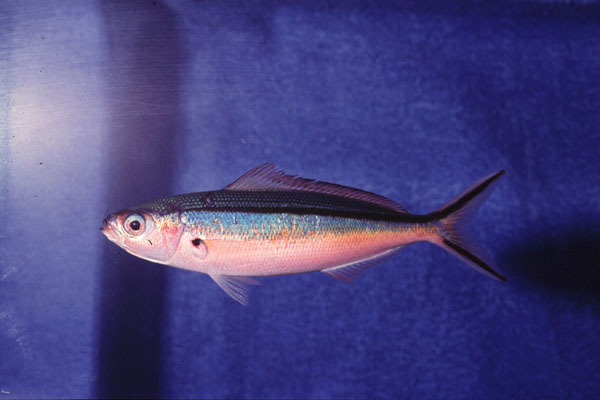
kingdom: Animalia
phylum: Chordata
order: Perciformes
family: Caesionidae
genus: Pterocaesio
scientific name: Pterocaesio tile
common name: Dark-banded fusilier
